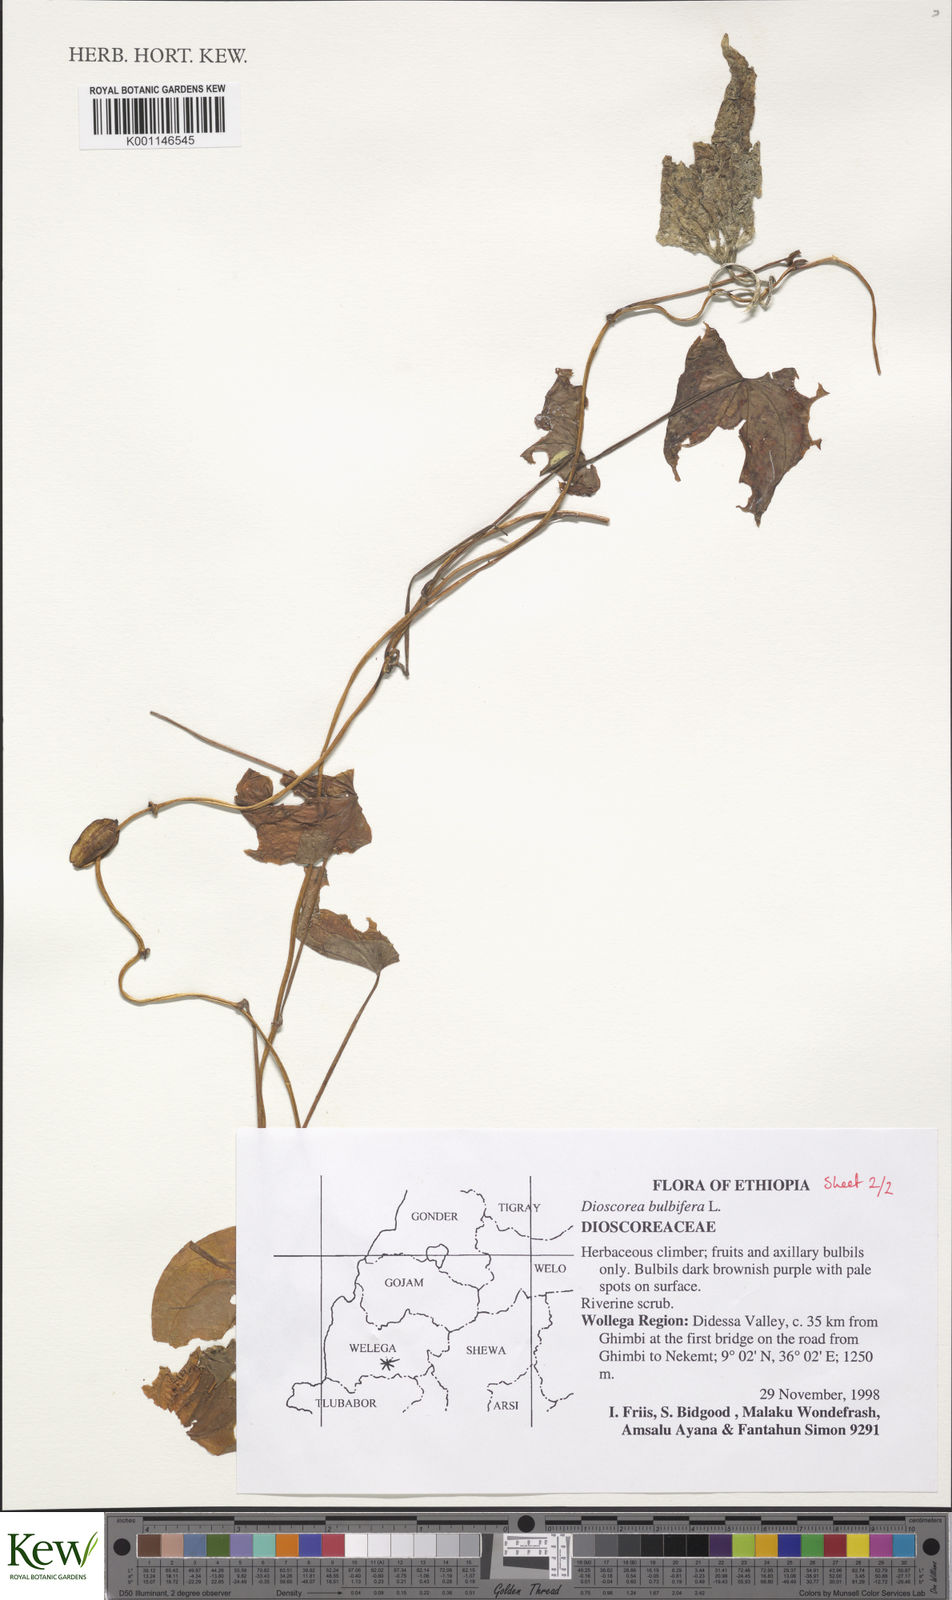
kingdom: Plantae
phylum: Tracheophyta
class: Liliopsida
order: Dioscoreales
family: Dioscoreaceae
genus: Dioscorea
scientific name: Dioscorea bulbifera
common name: Air yam
